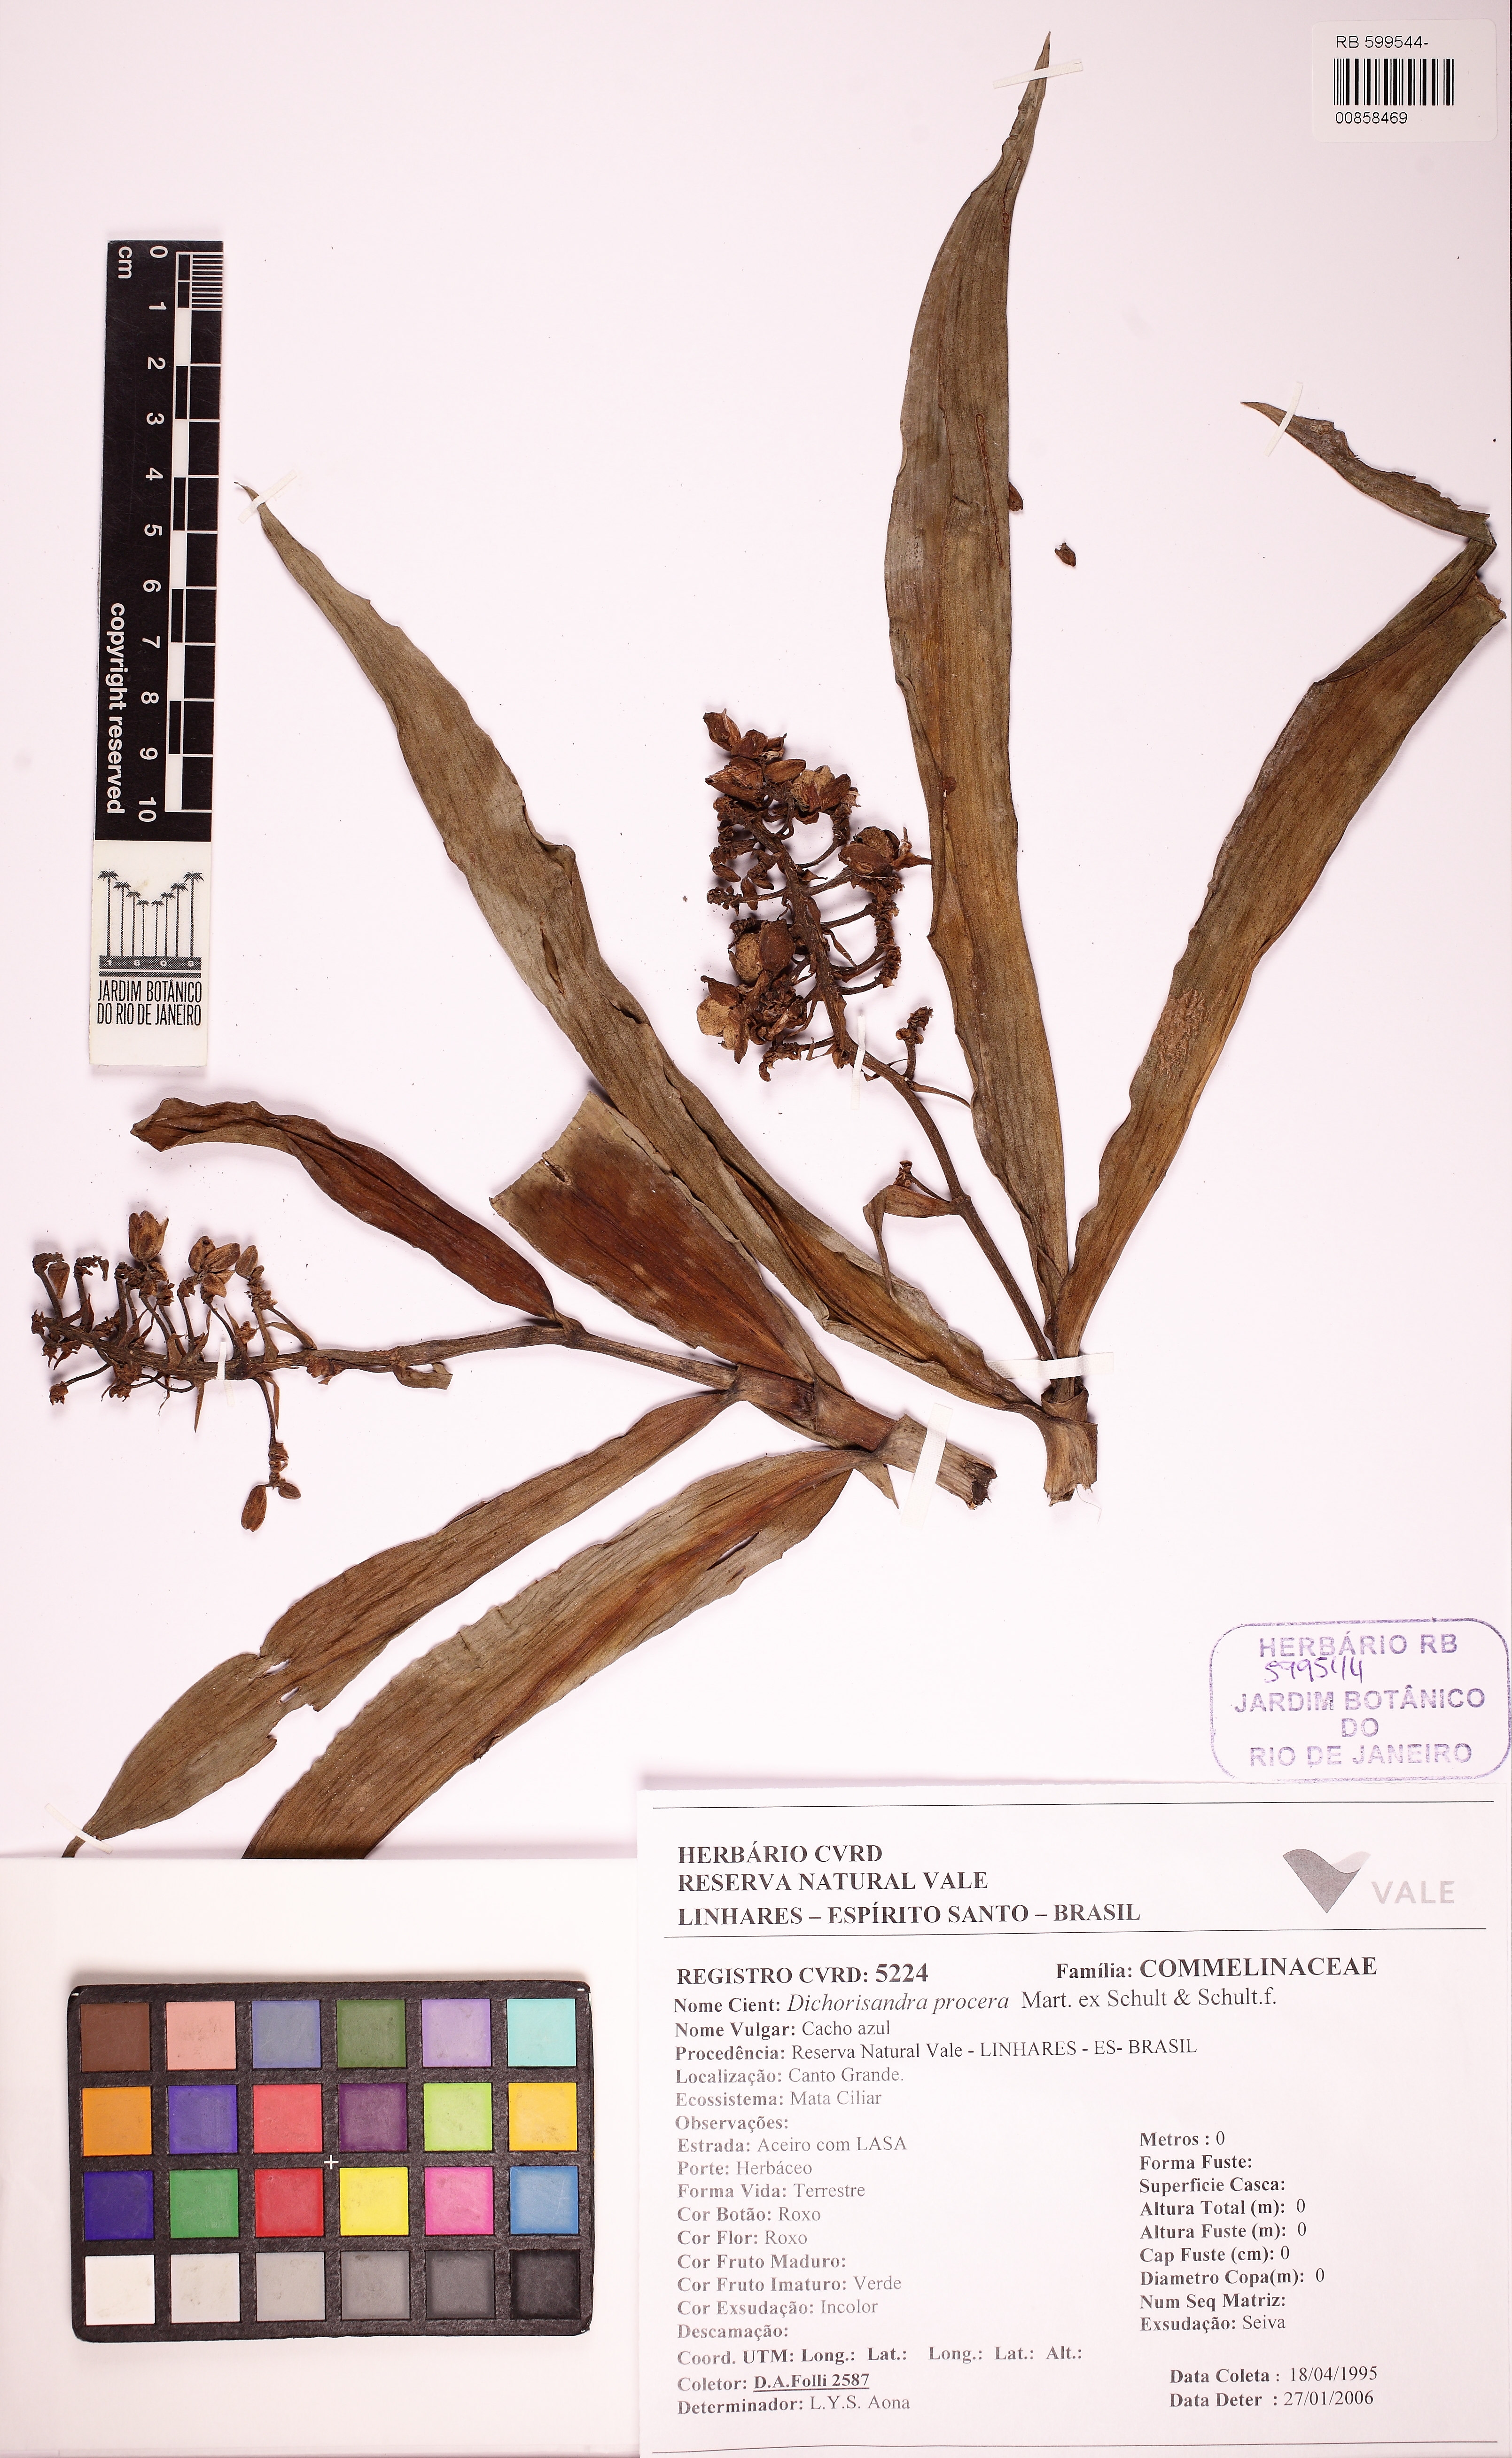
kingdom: Plantae
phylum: Tracheophyta
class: Liliopsida
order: Commelinales
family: Commelinaceae
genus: Dichorisandra
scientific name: Dichorisandra procera
